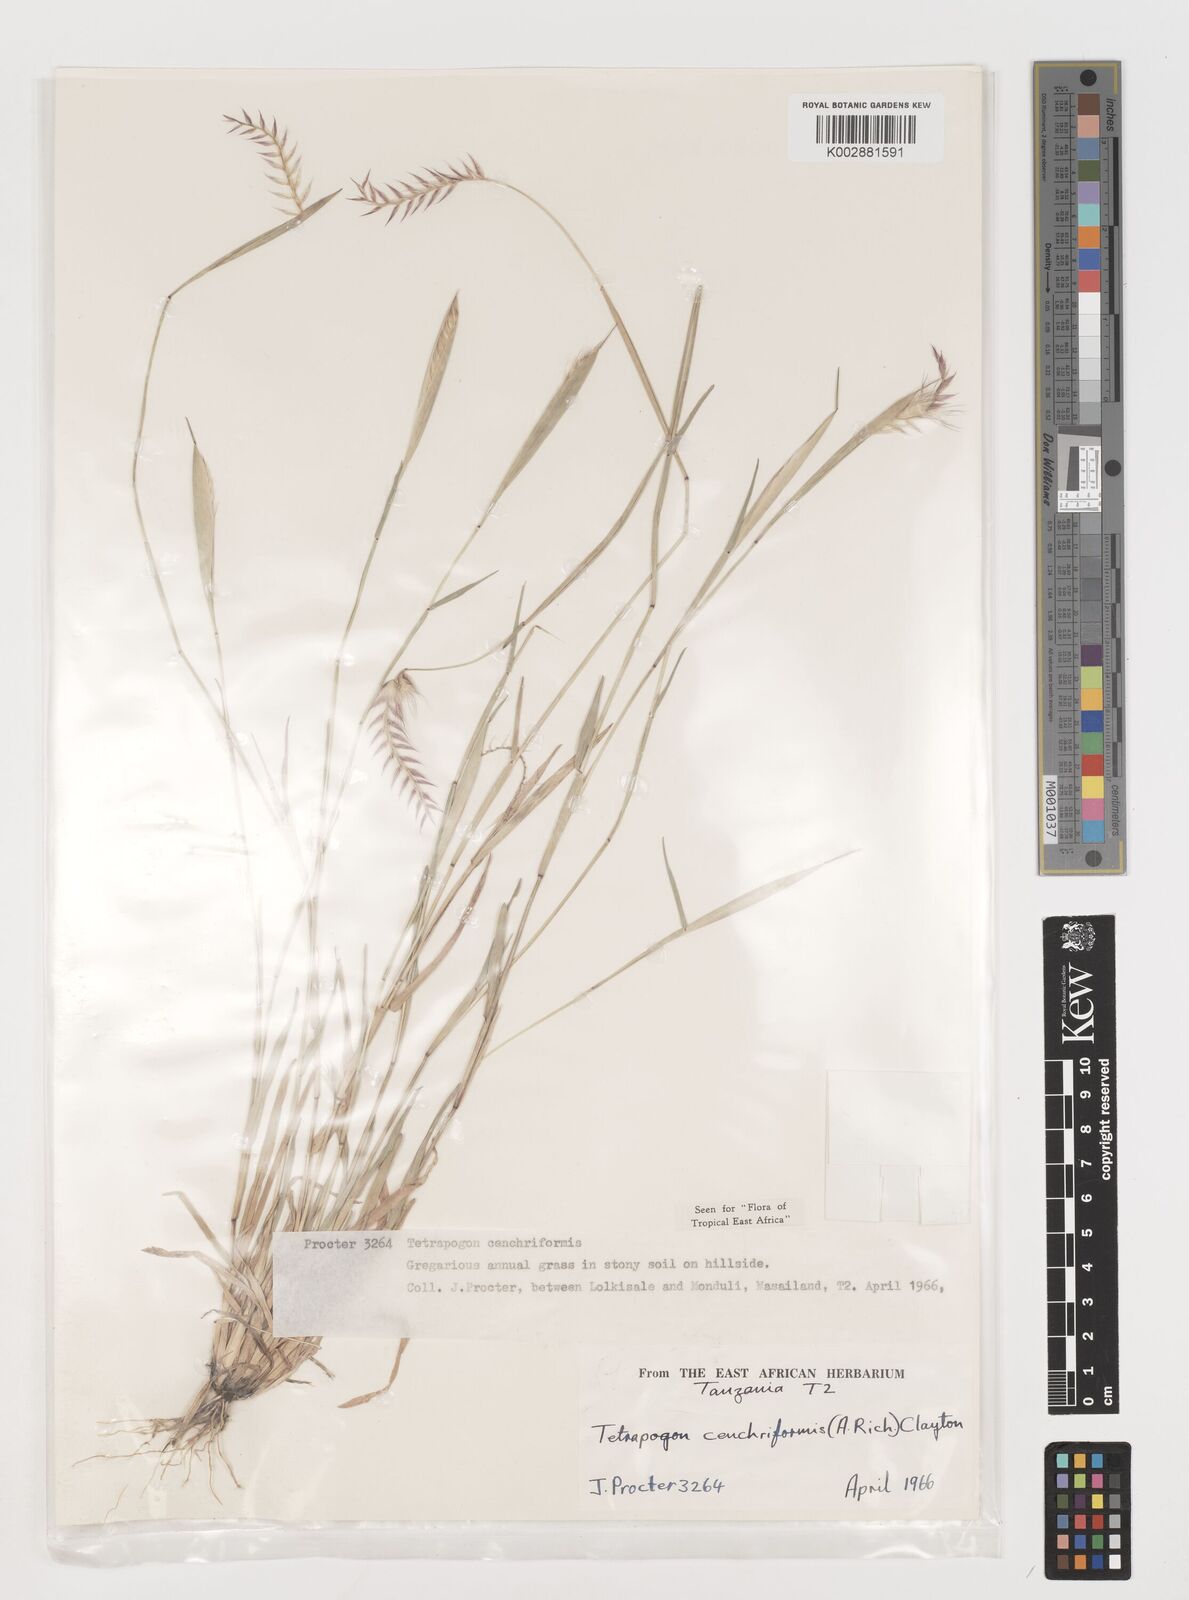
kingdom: Plantae
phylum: Tracheophyta
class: Liliopsida
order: Poales
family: Poaceae
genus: Tetrapogon
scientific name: Tetrapogon cenchriformis
